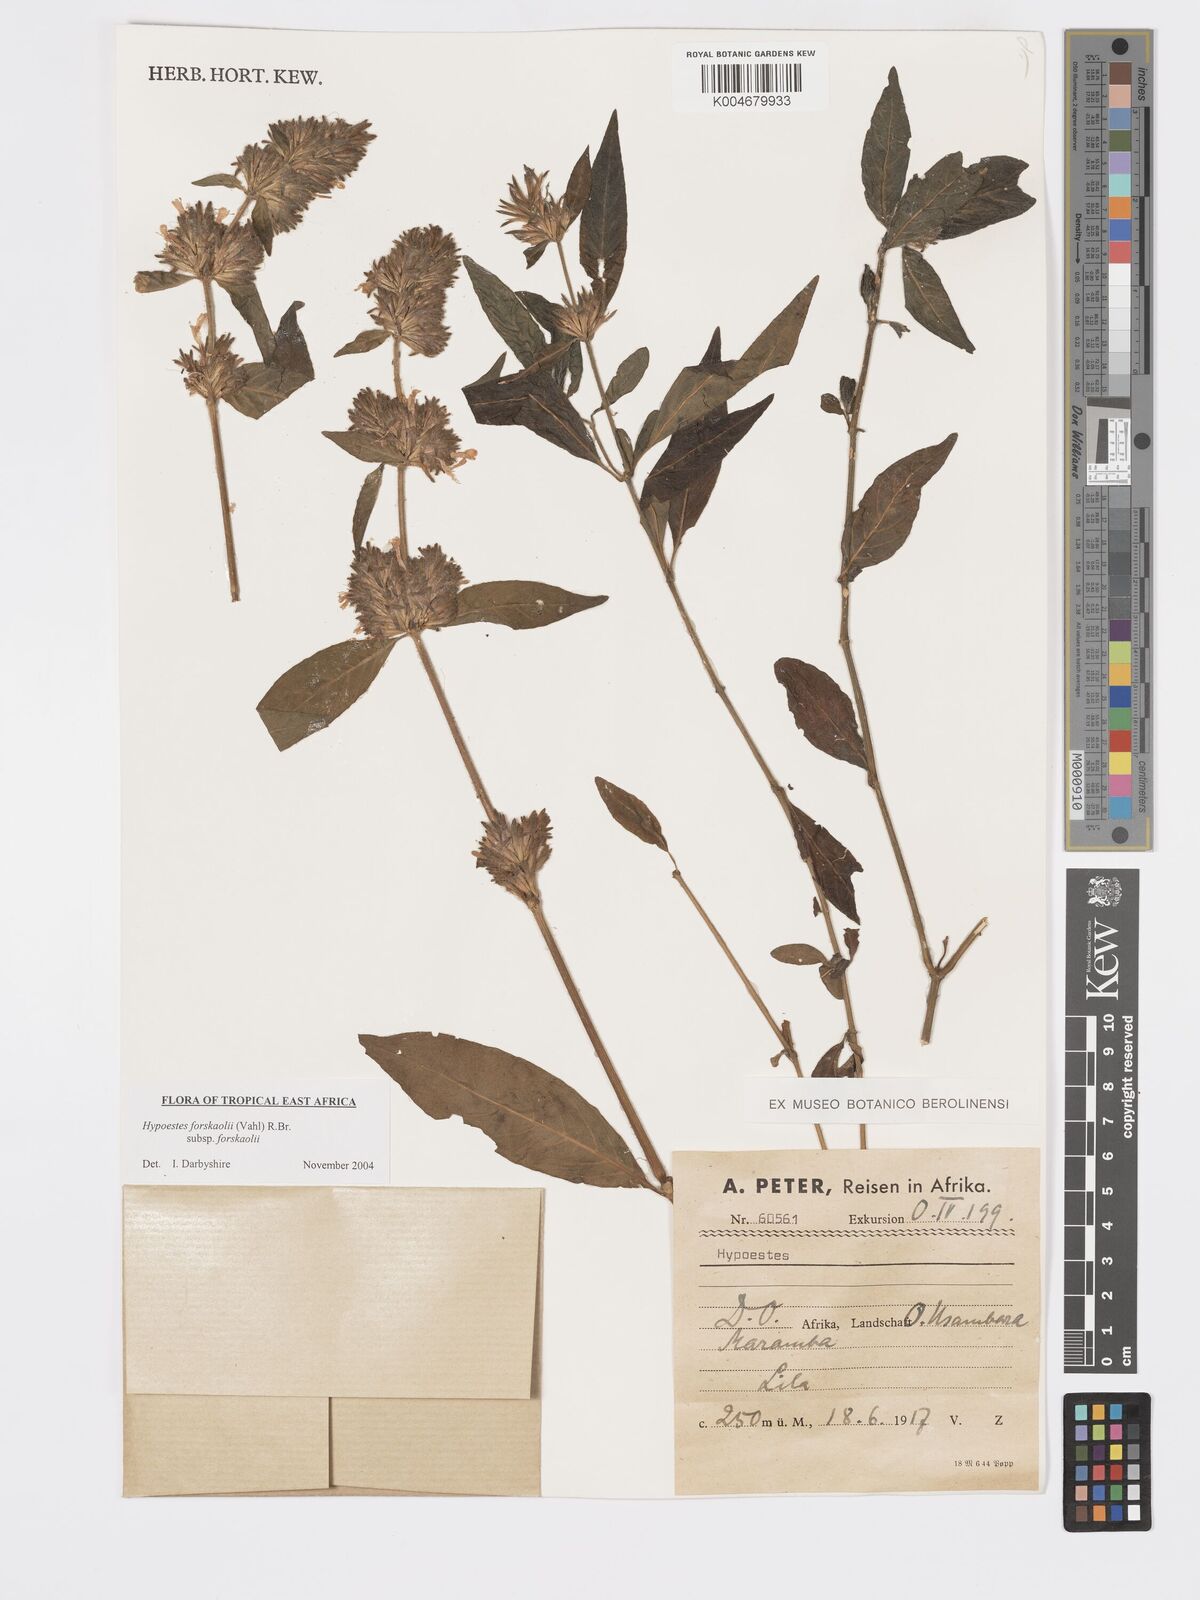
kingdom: Plantae
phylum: Tracheophyta
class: Magnoliopsida
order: Lamiales
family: Acanthaceae
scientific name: Acanthaceae
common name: Acanthaceae
